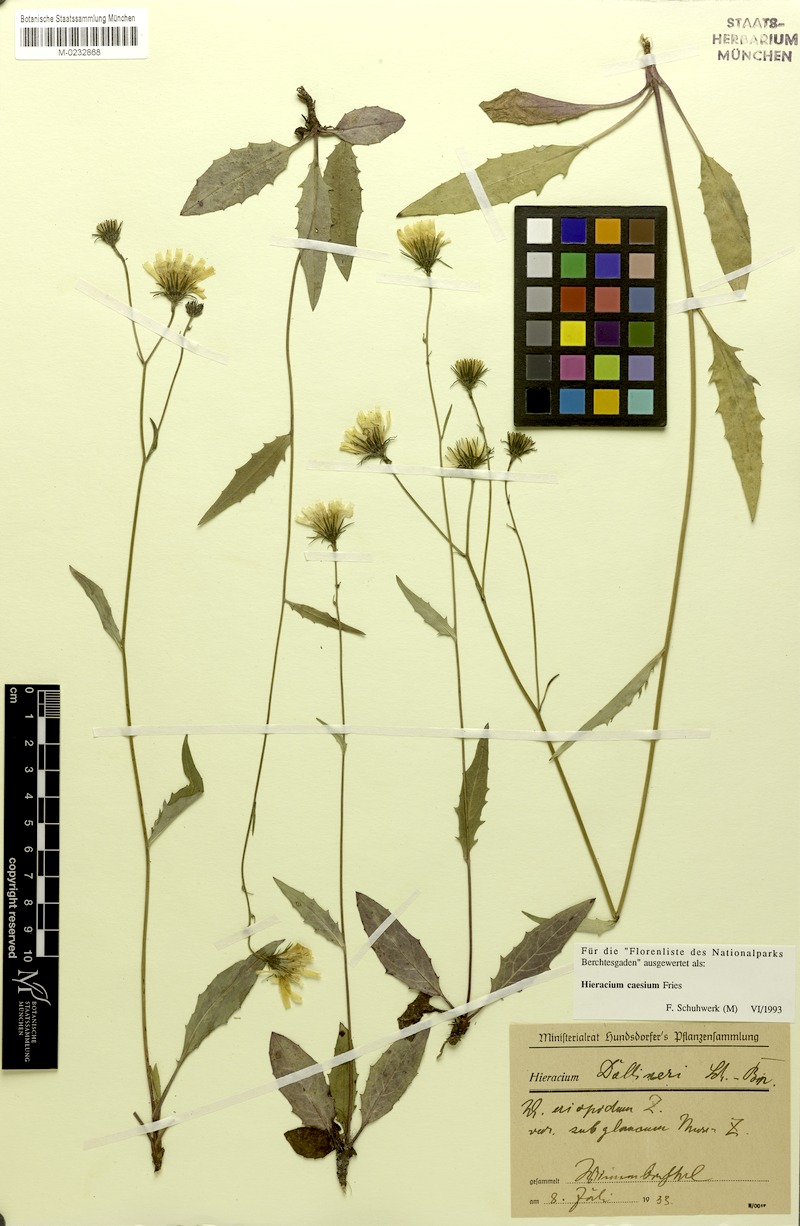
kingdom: Plantae
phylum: Tracheophyta
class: Magnoliopsida
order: Asterales
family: Asteraceae
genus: Hieracium
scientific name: Hieracium caesium
